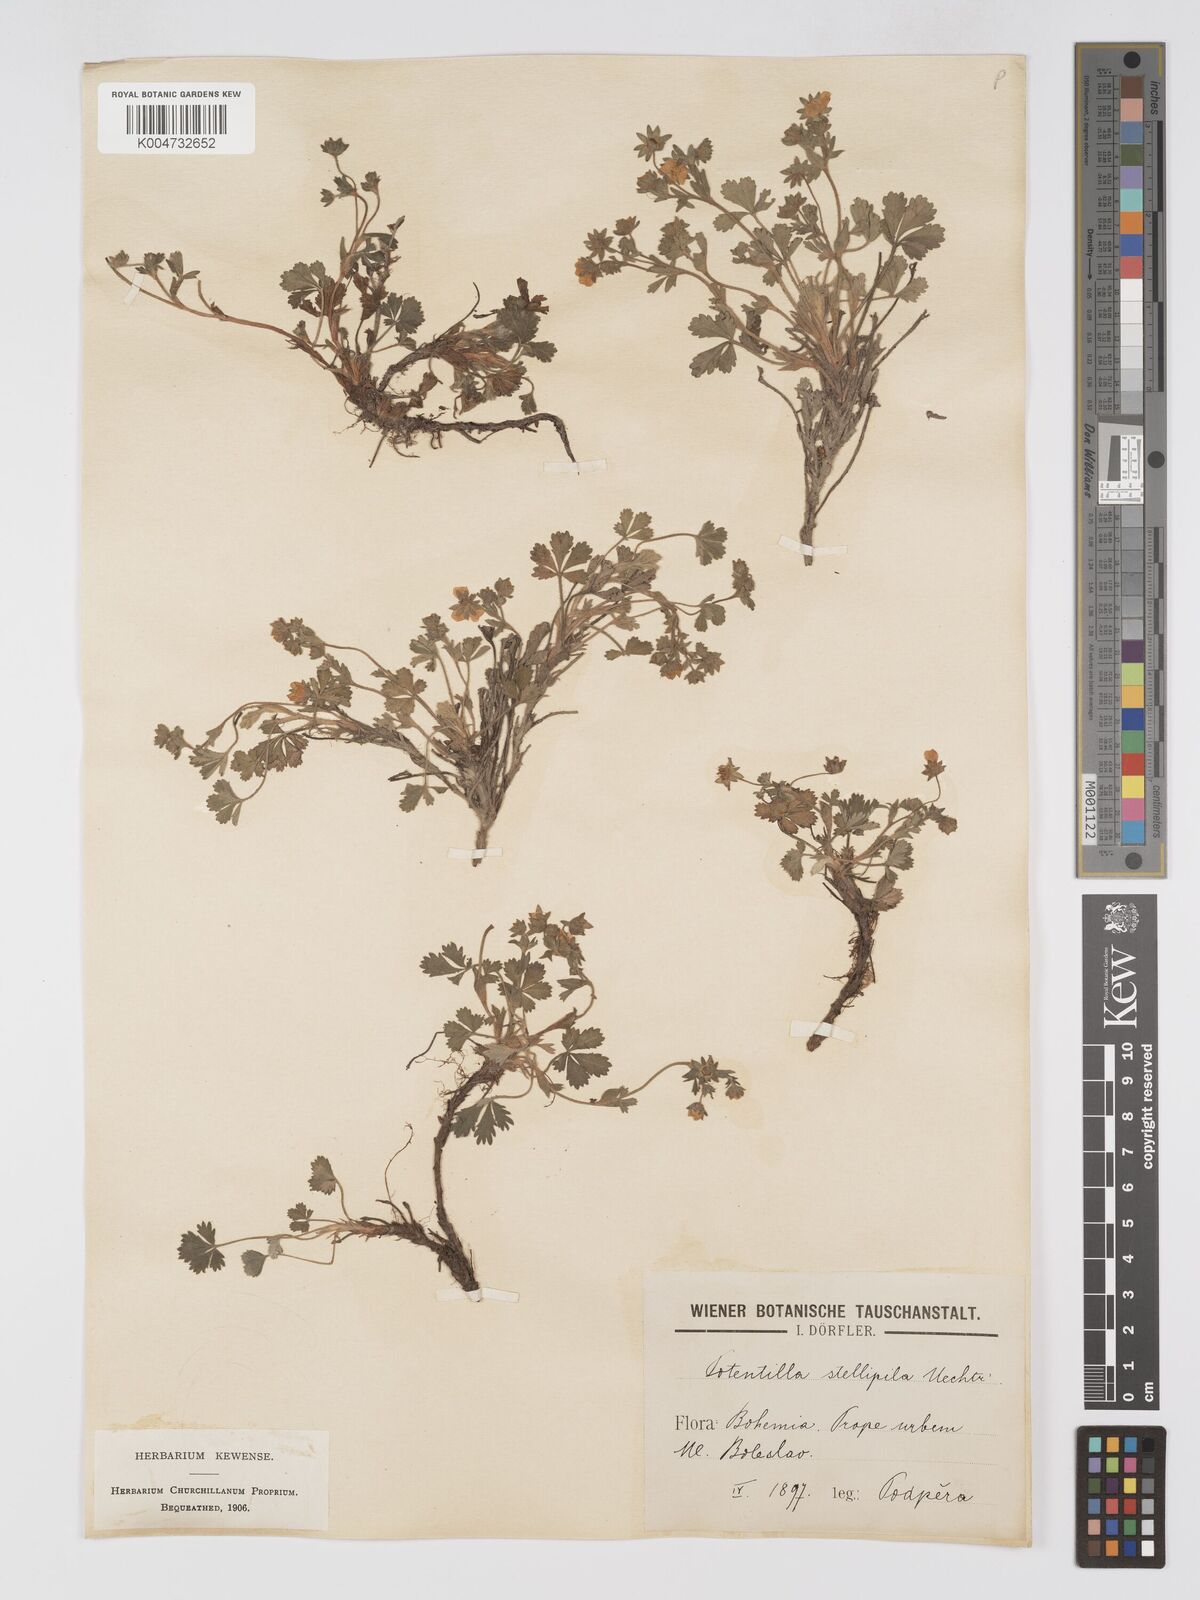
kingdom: Plantae
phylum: Tracheophyta
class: Magnoliopsida
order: Rosales
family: Rosaceae
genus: Potentilla
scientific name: Potentilla cinerea
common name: Ashy cinquefoil
